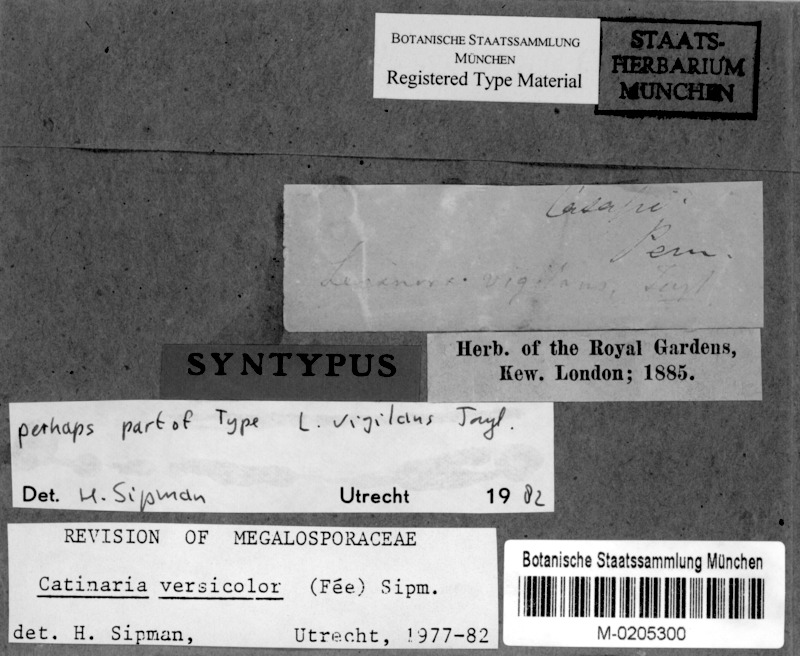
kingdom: Fungi
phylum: Ascomycota
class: Lecanoromycetes
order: Lecanorales
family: Ramalinaceae
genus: Lopezaria
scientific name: Lopezaria versicolor
